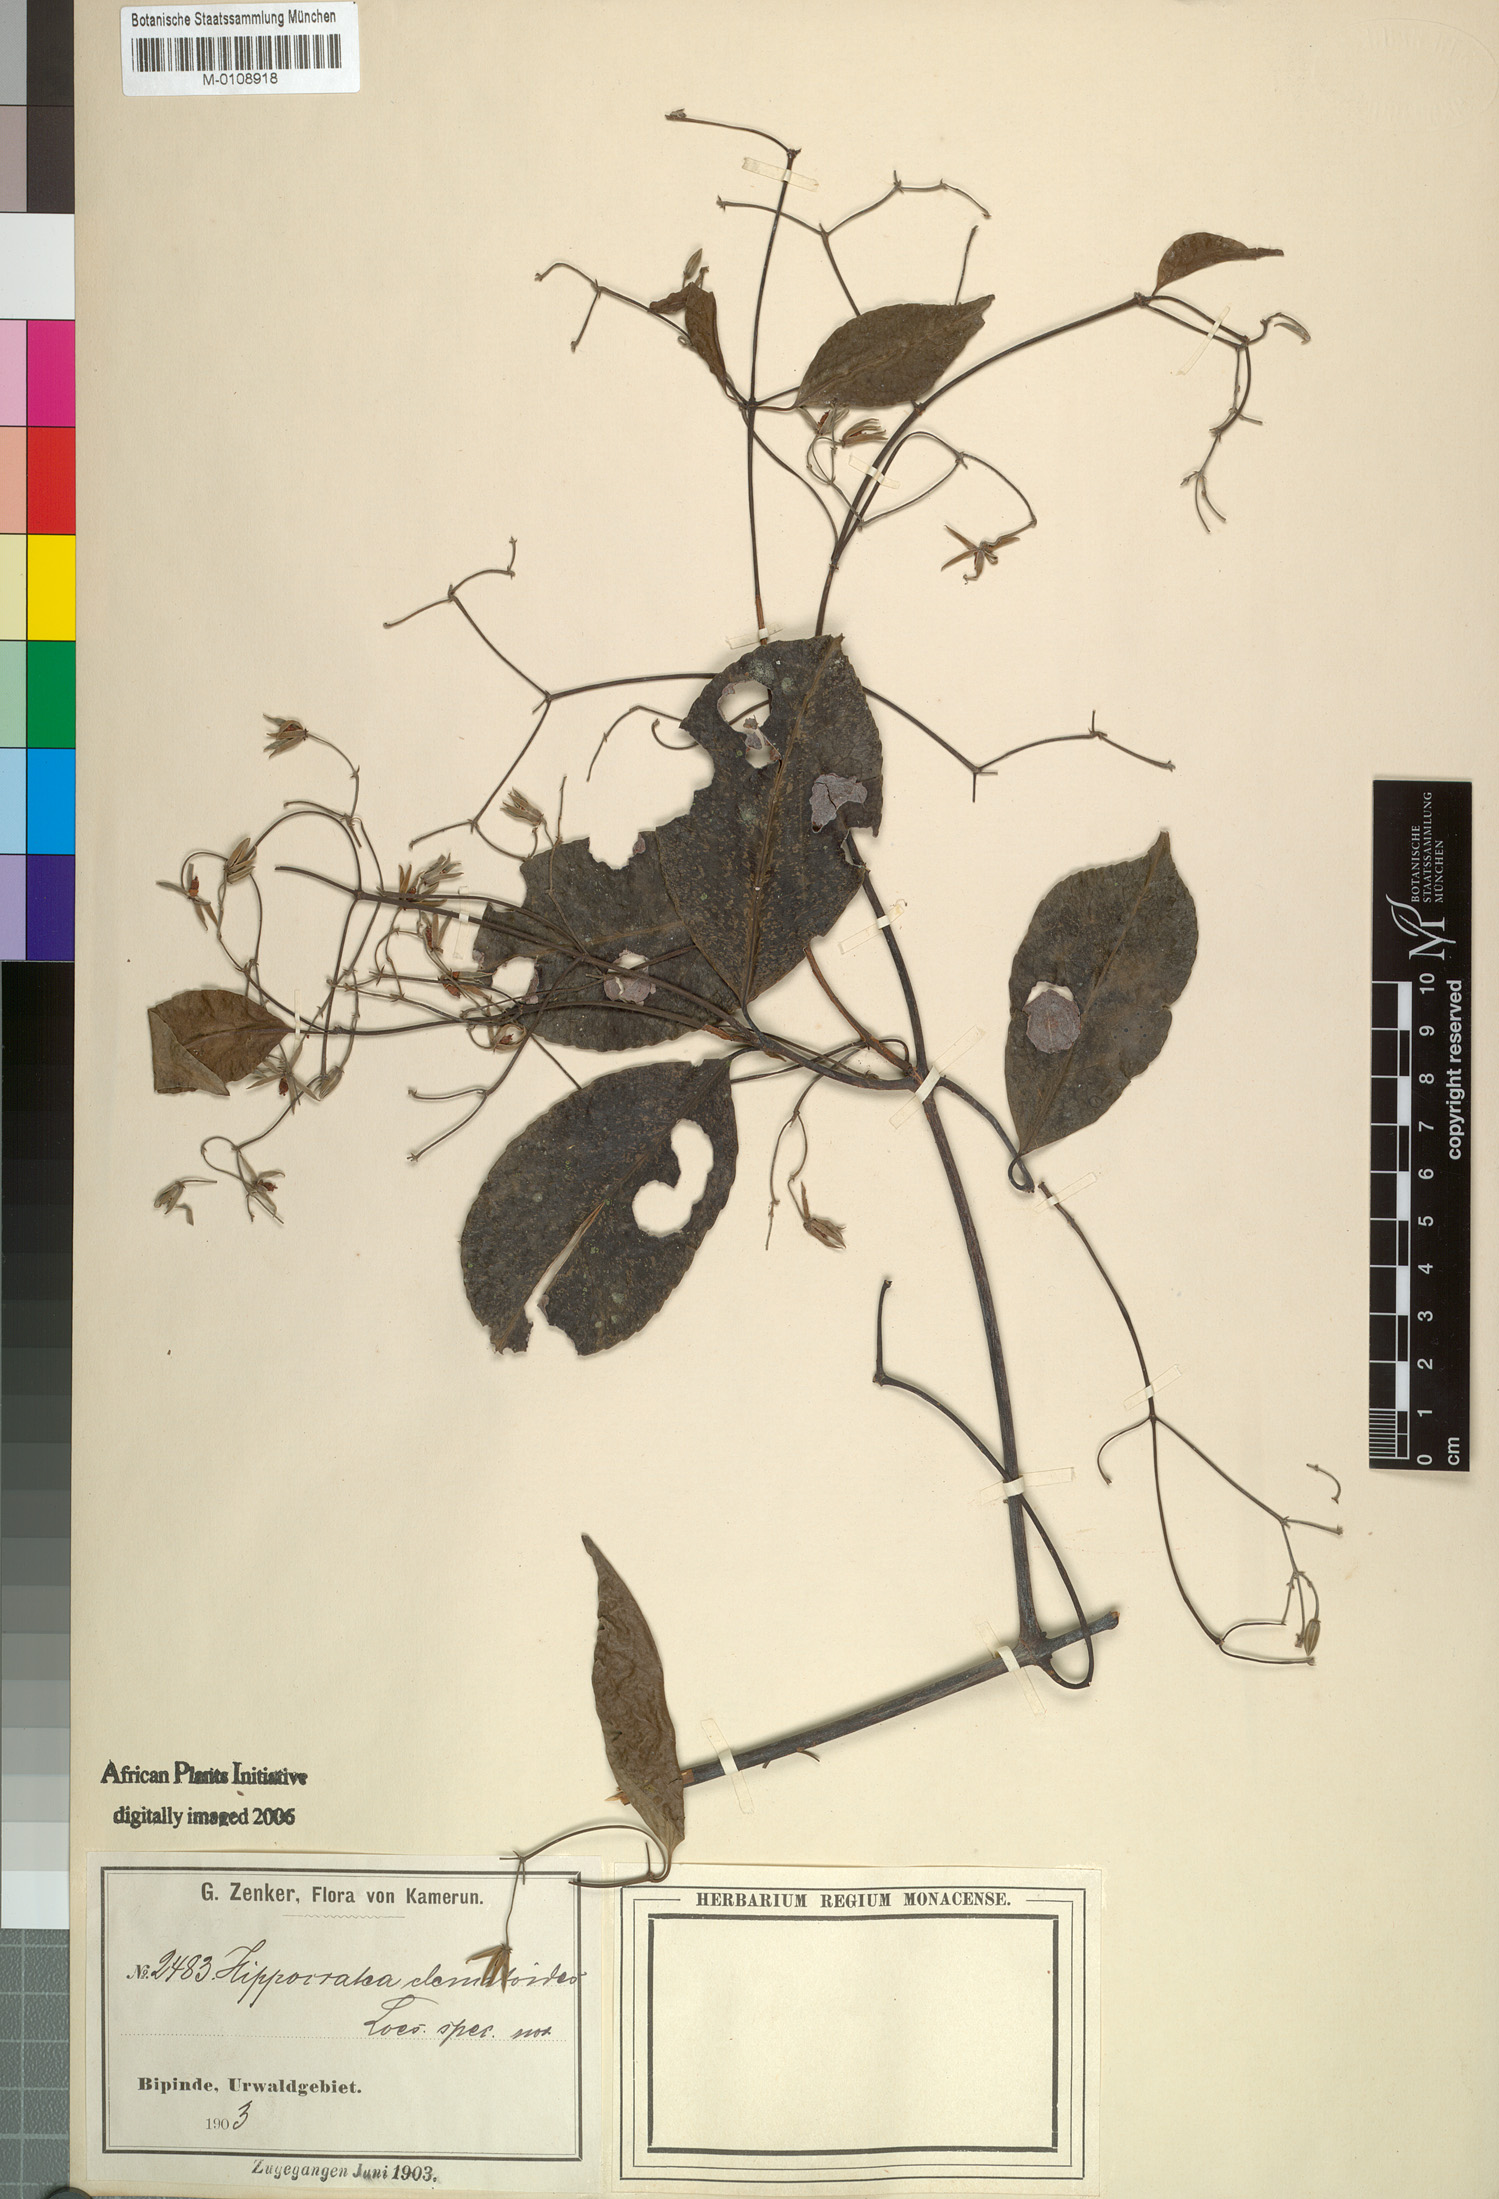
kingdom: Plantae
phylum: Tracheophyta
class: Magnoliopsida
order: Celastrales
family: Celastraceae
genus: Pristimera
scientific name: Pristimera andongensis
